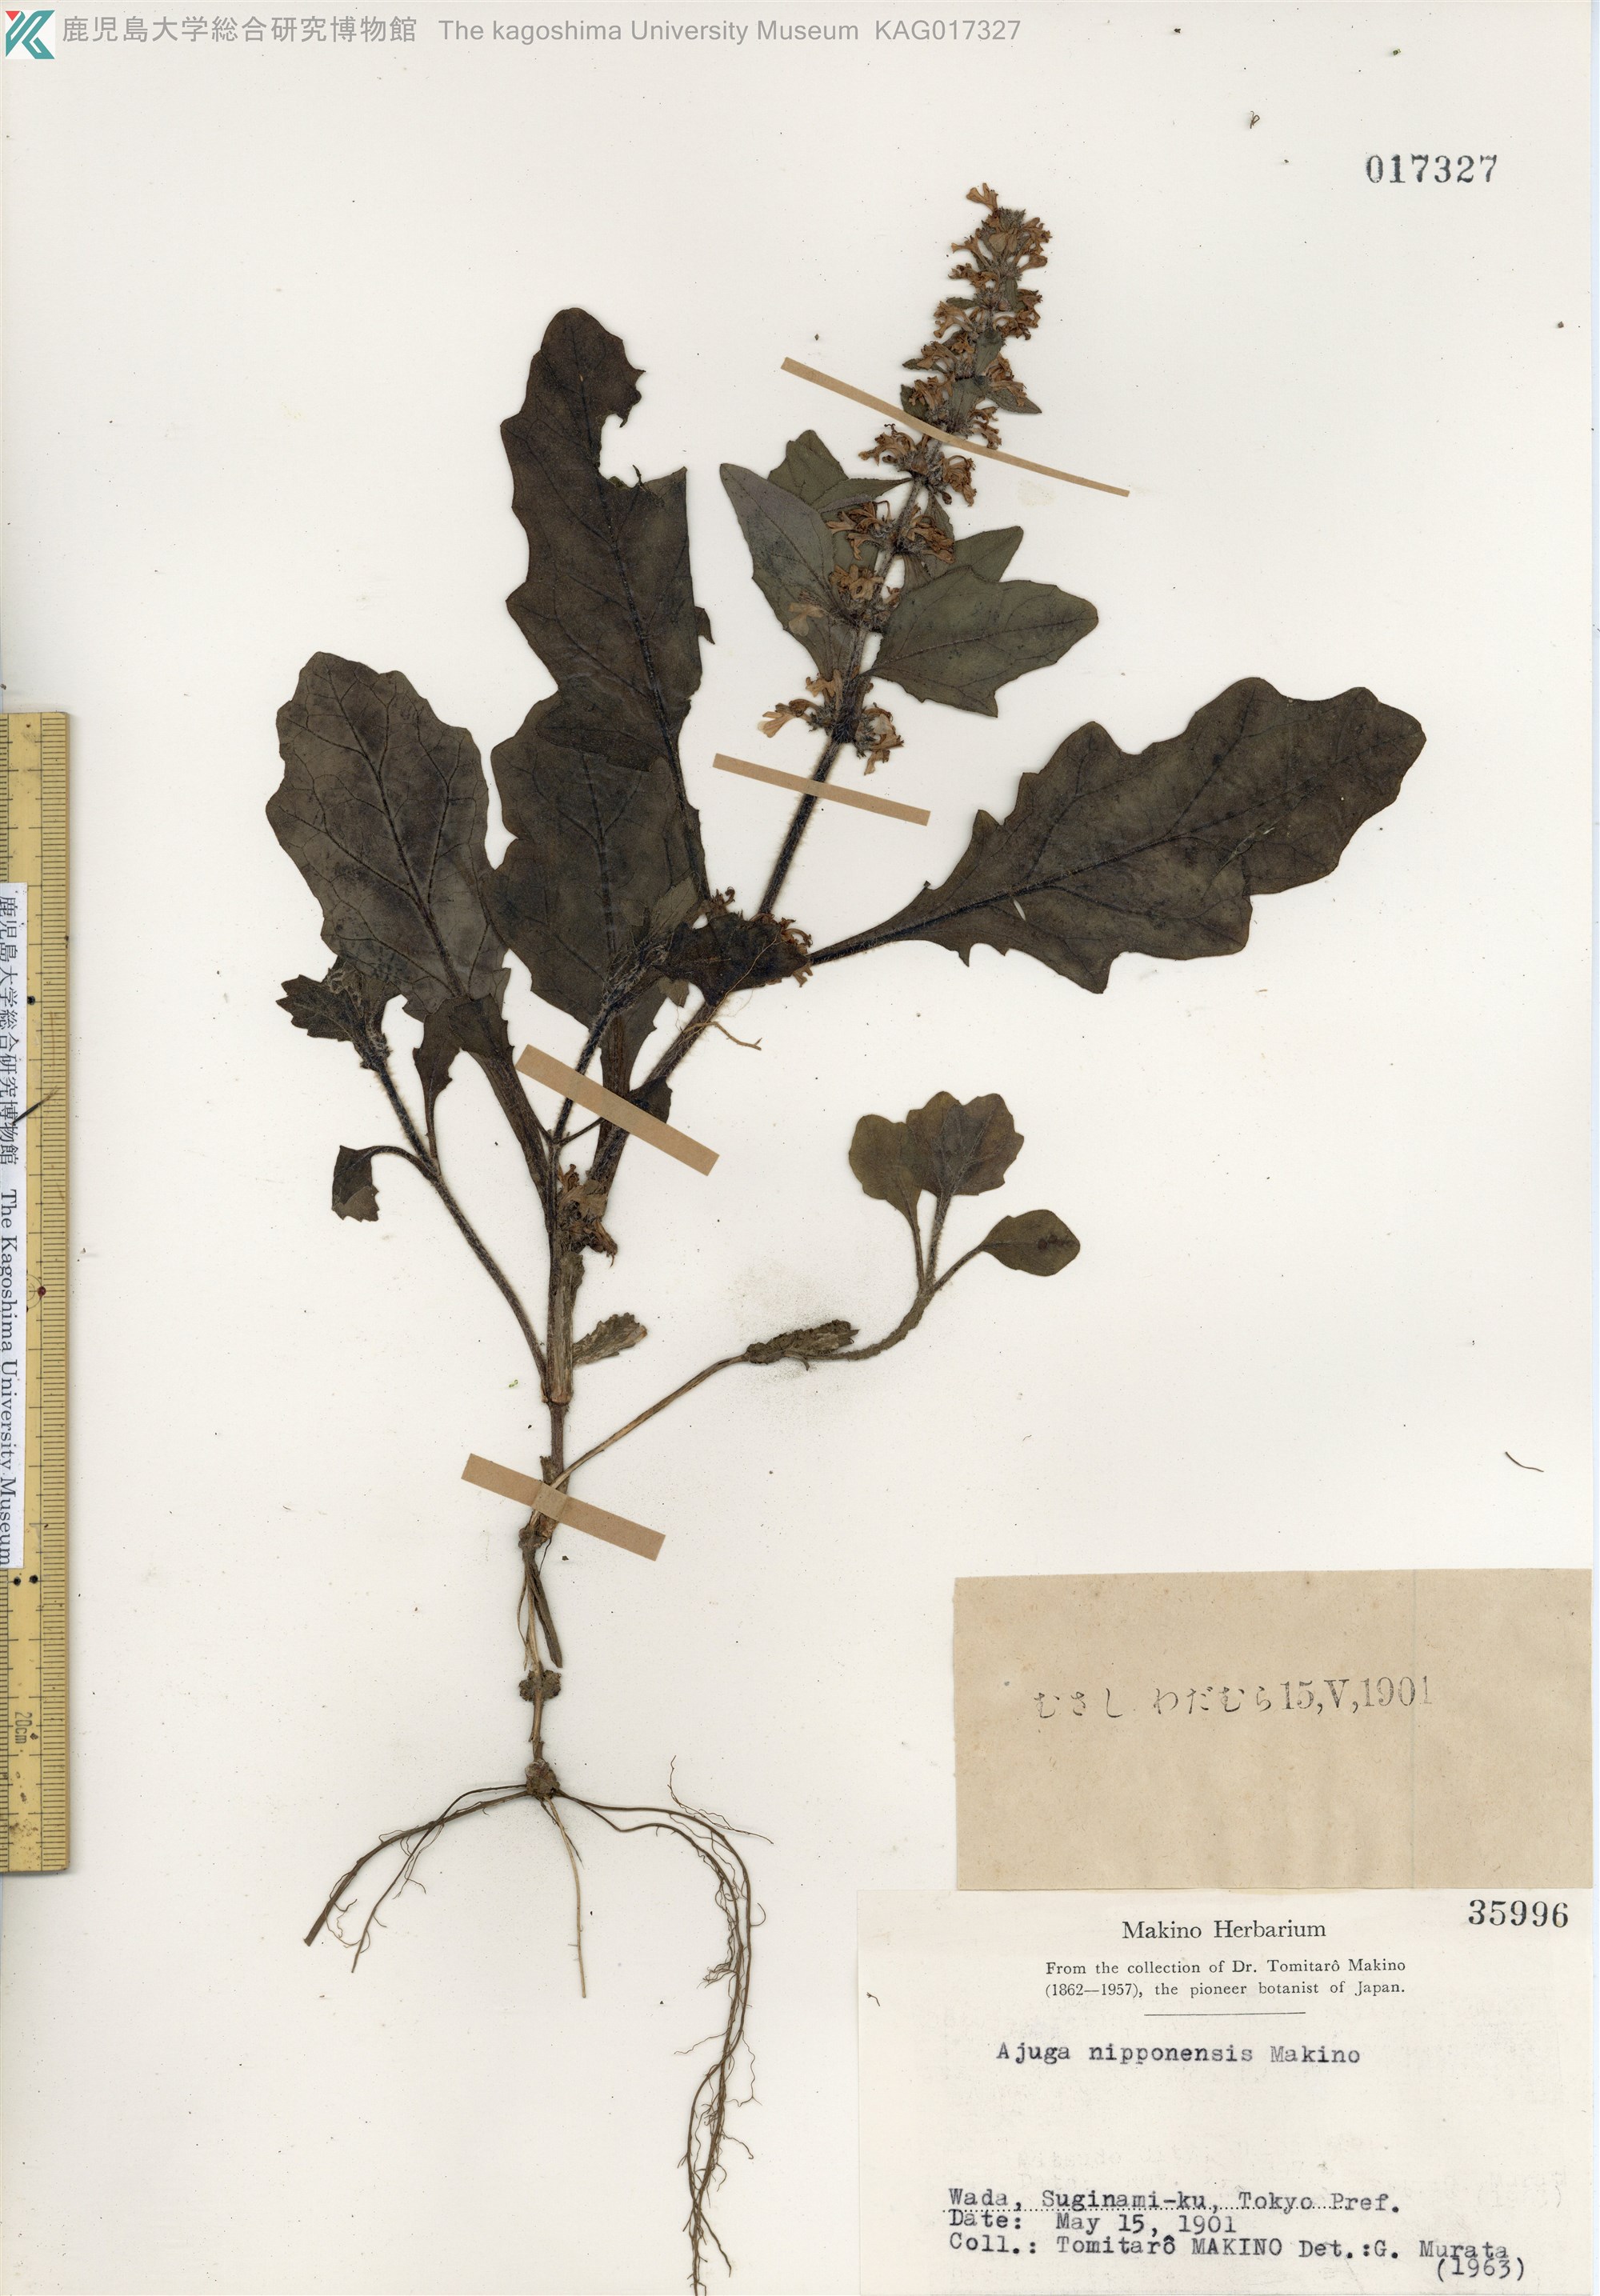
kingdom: Plantae
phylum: Tracheophyta
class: Magnoliopsida
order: Lamiales
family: Lamiaceae
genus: Ajuga
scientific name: Ajuga nipponensis
